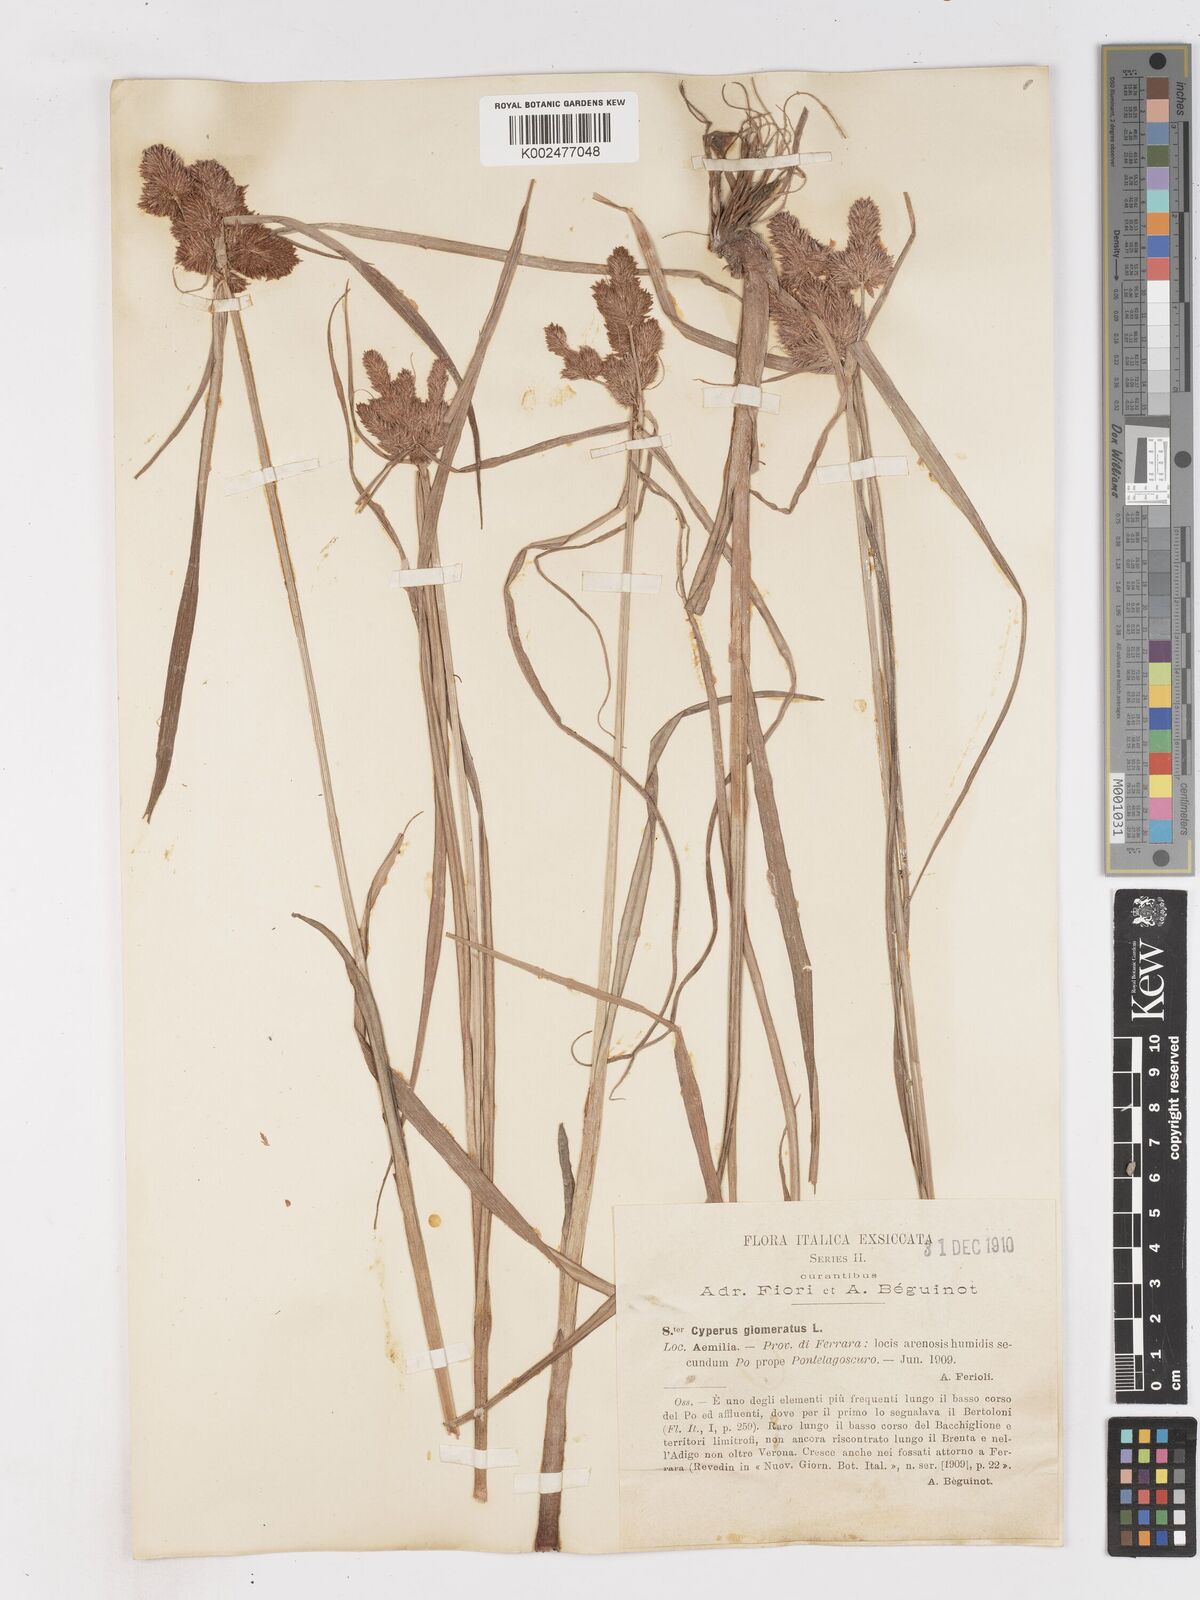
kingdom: Plantae
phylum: Tracheophyta
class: Liliopsida
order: Poales
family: Cyperaceae
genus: Cyperus
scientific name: Cyperus glomeratus
